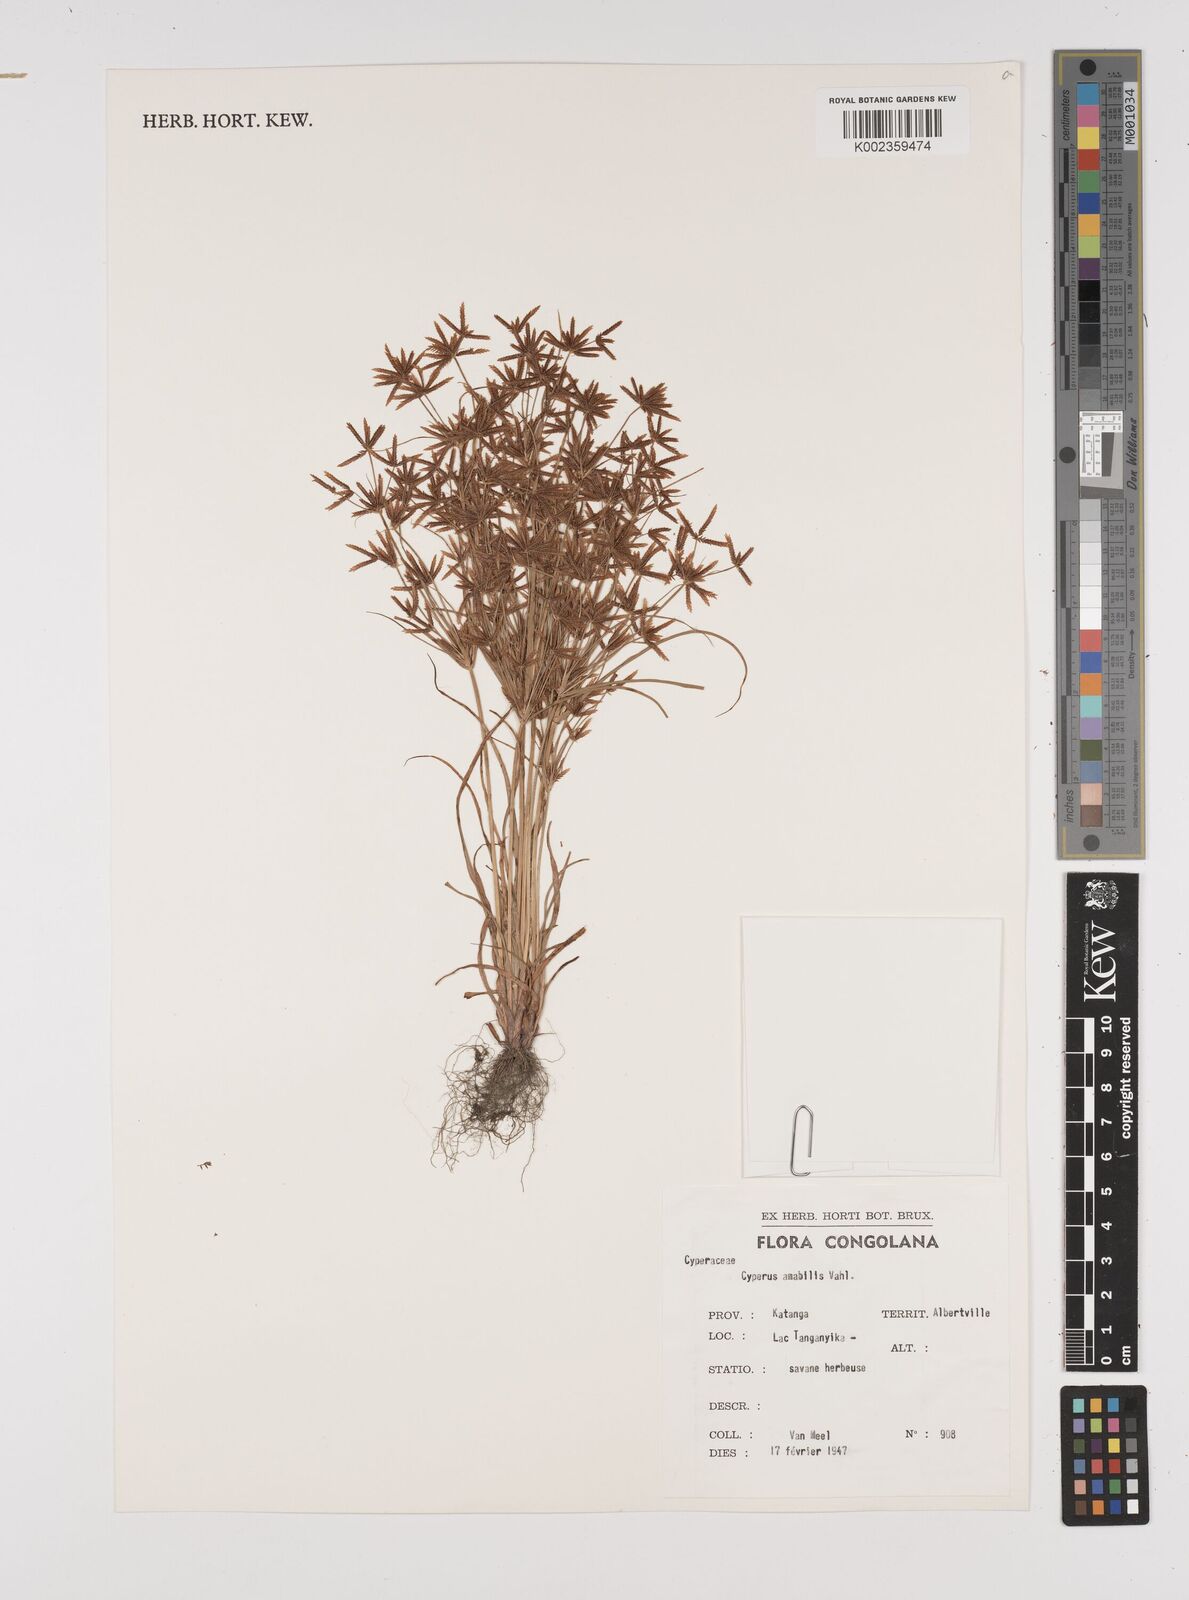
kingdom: Plantae
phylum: Tracheophyta
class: Liliopsida
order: Poales
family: Cyperaceae
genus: Cyperus
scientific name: Cyperus amabilis
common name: Foothill flat sedge
